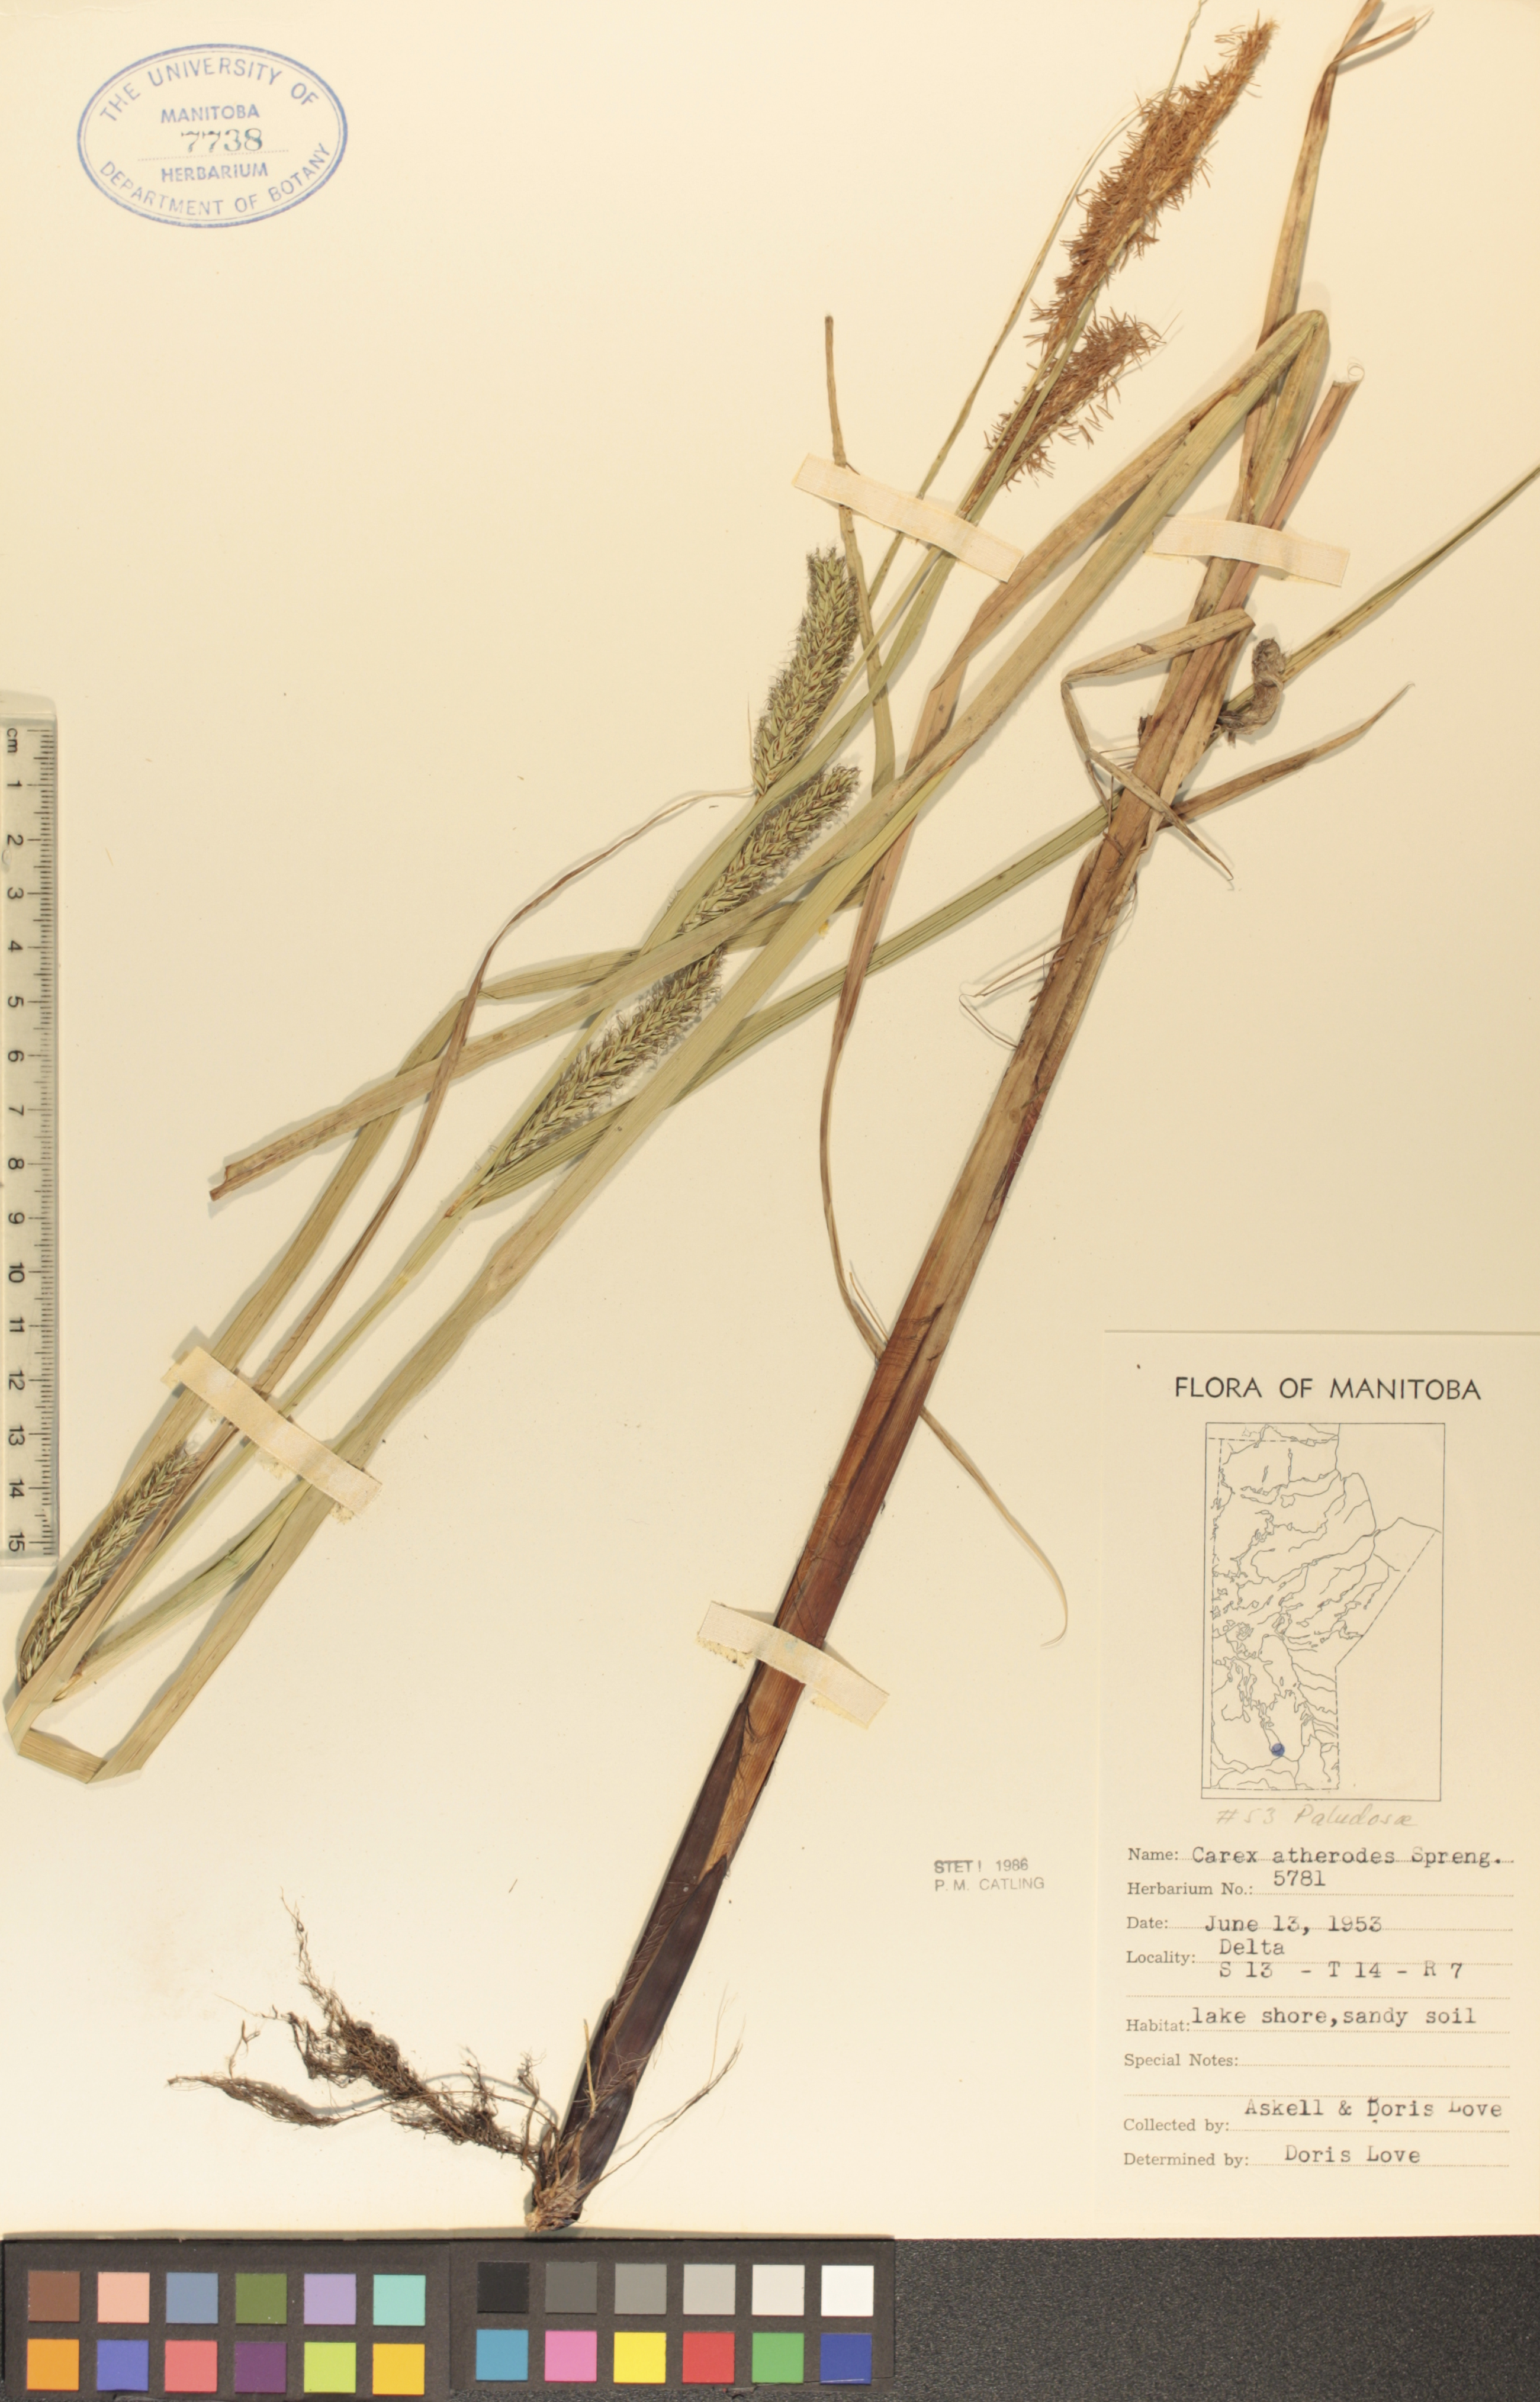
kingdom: Plantae
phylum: Tracheophyta
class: Liliopsida
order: Poales
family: Cyperaceae
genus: Carex
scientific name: Carex atherodes
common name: Wheat sedge
